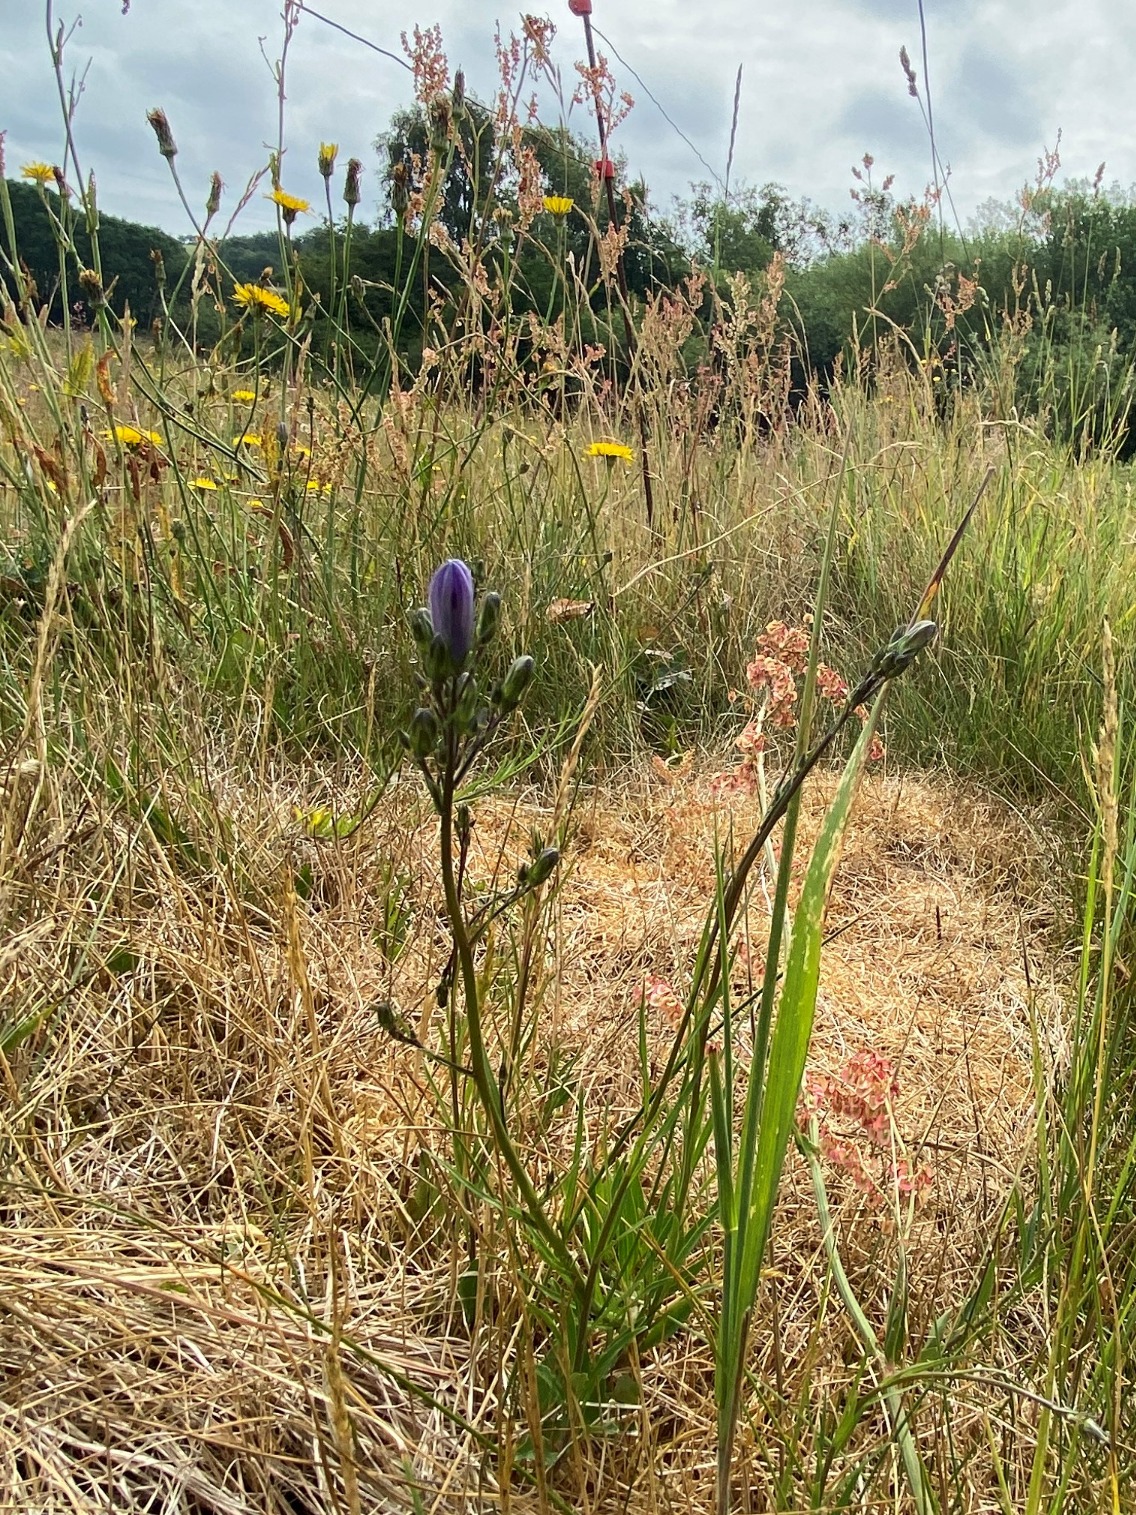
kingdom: Plantae
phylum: Tracheophyta
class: Magnoliopsida
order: Asterales
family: Campanulaceae
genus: Campanula
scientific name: Campanula rotundifolia
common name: Liden klokke
